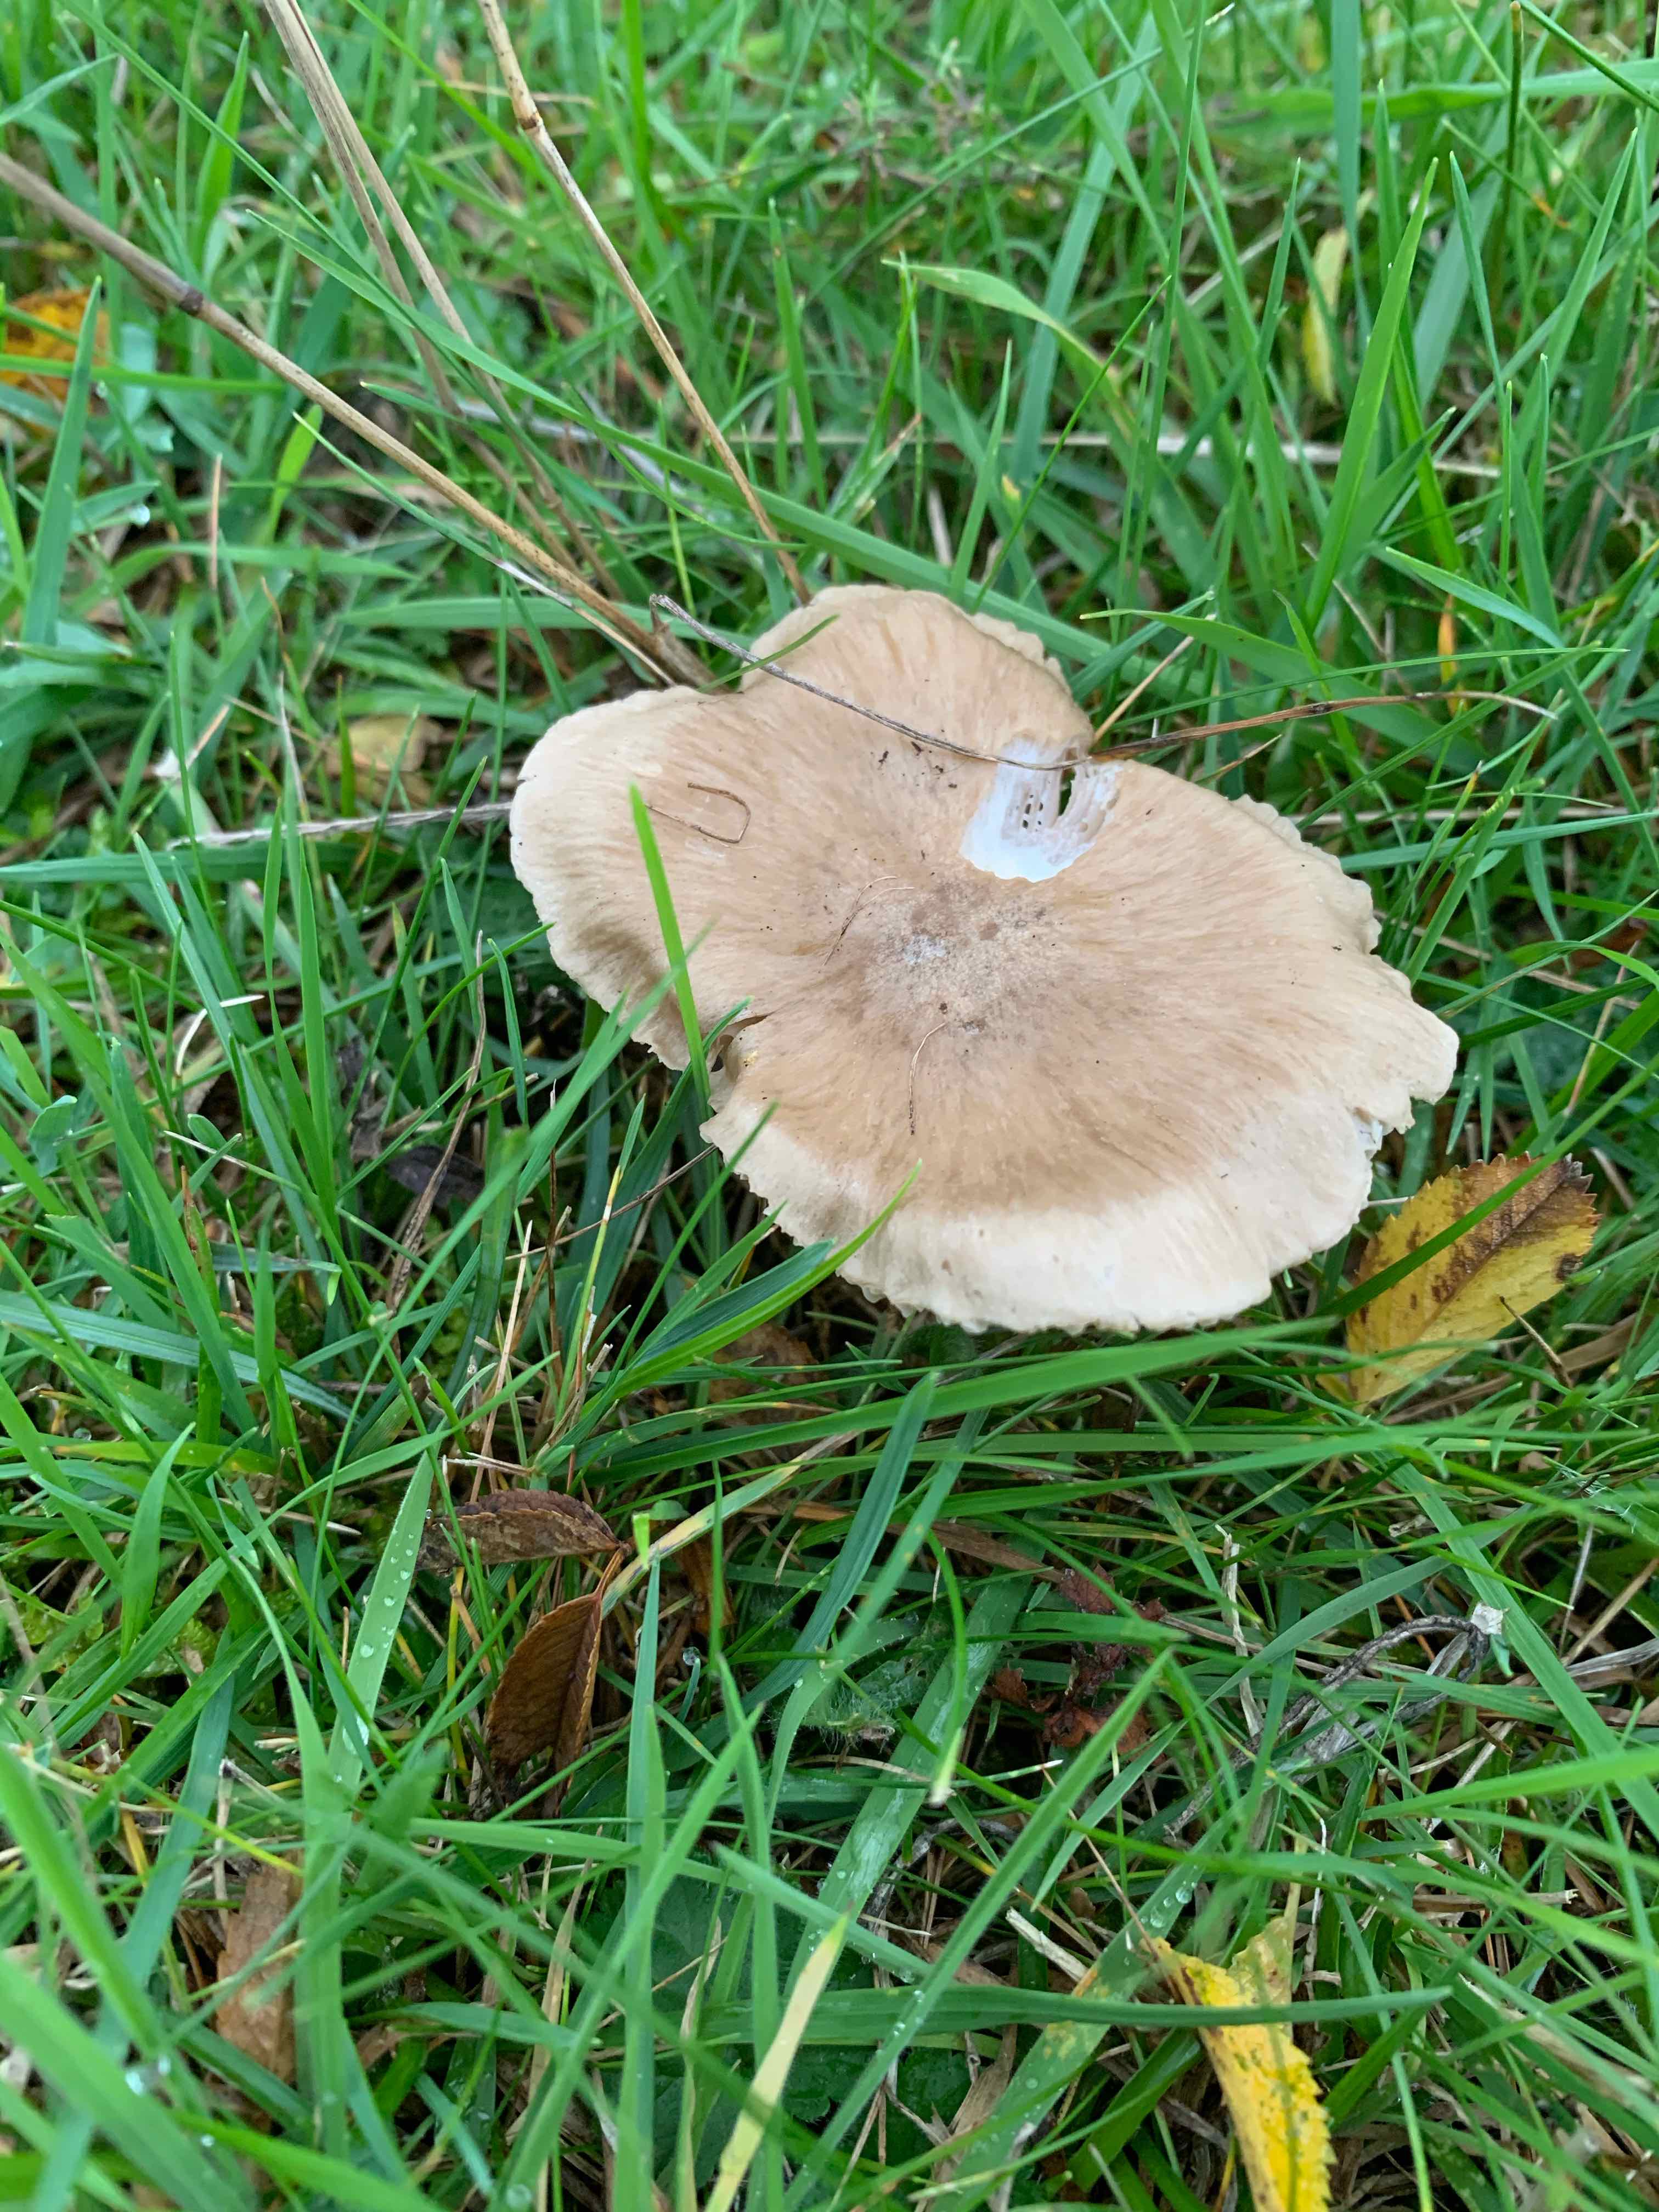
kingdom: Fungi
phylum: Basidiomycota
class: Agaricomycetes
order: Agaricales
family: Entolomataceae
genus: Entoloma
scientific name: Entoloma prunuloides
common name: mel-rødblad
